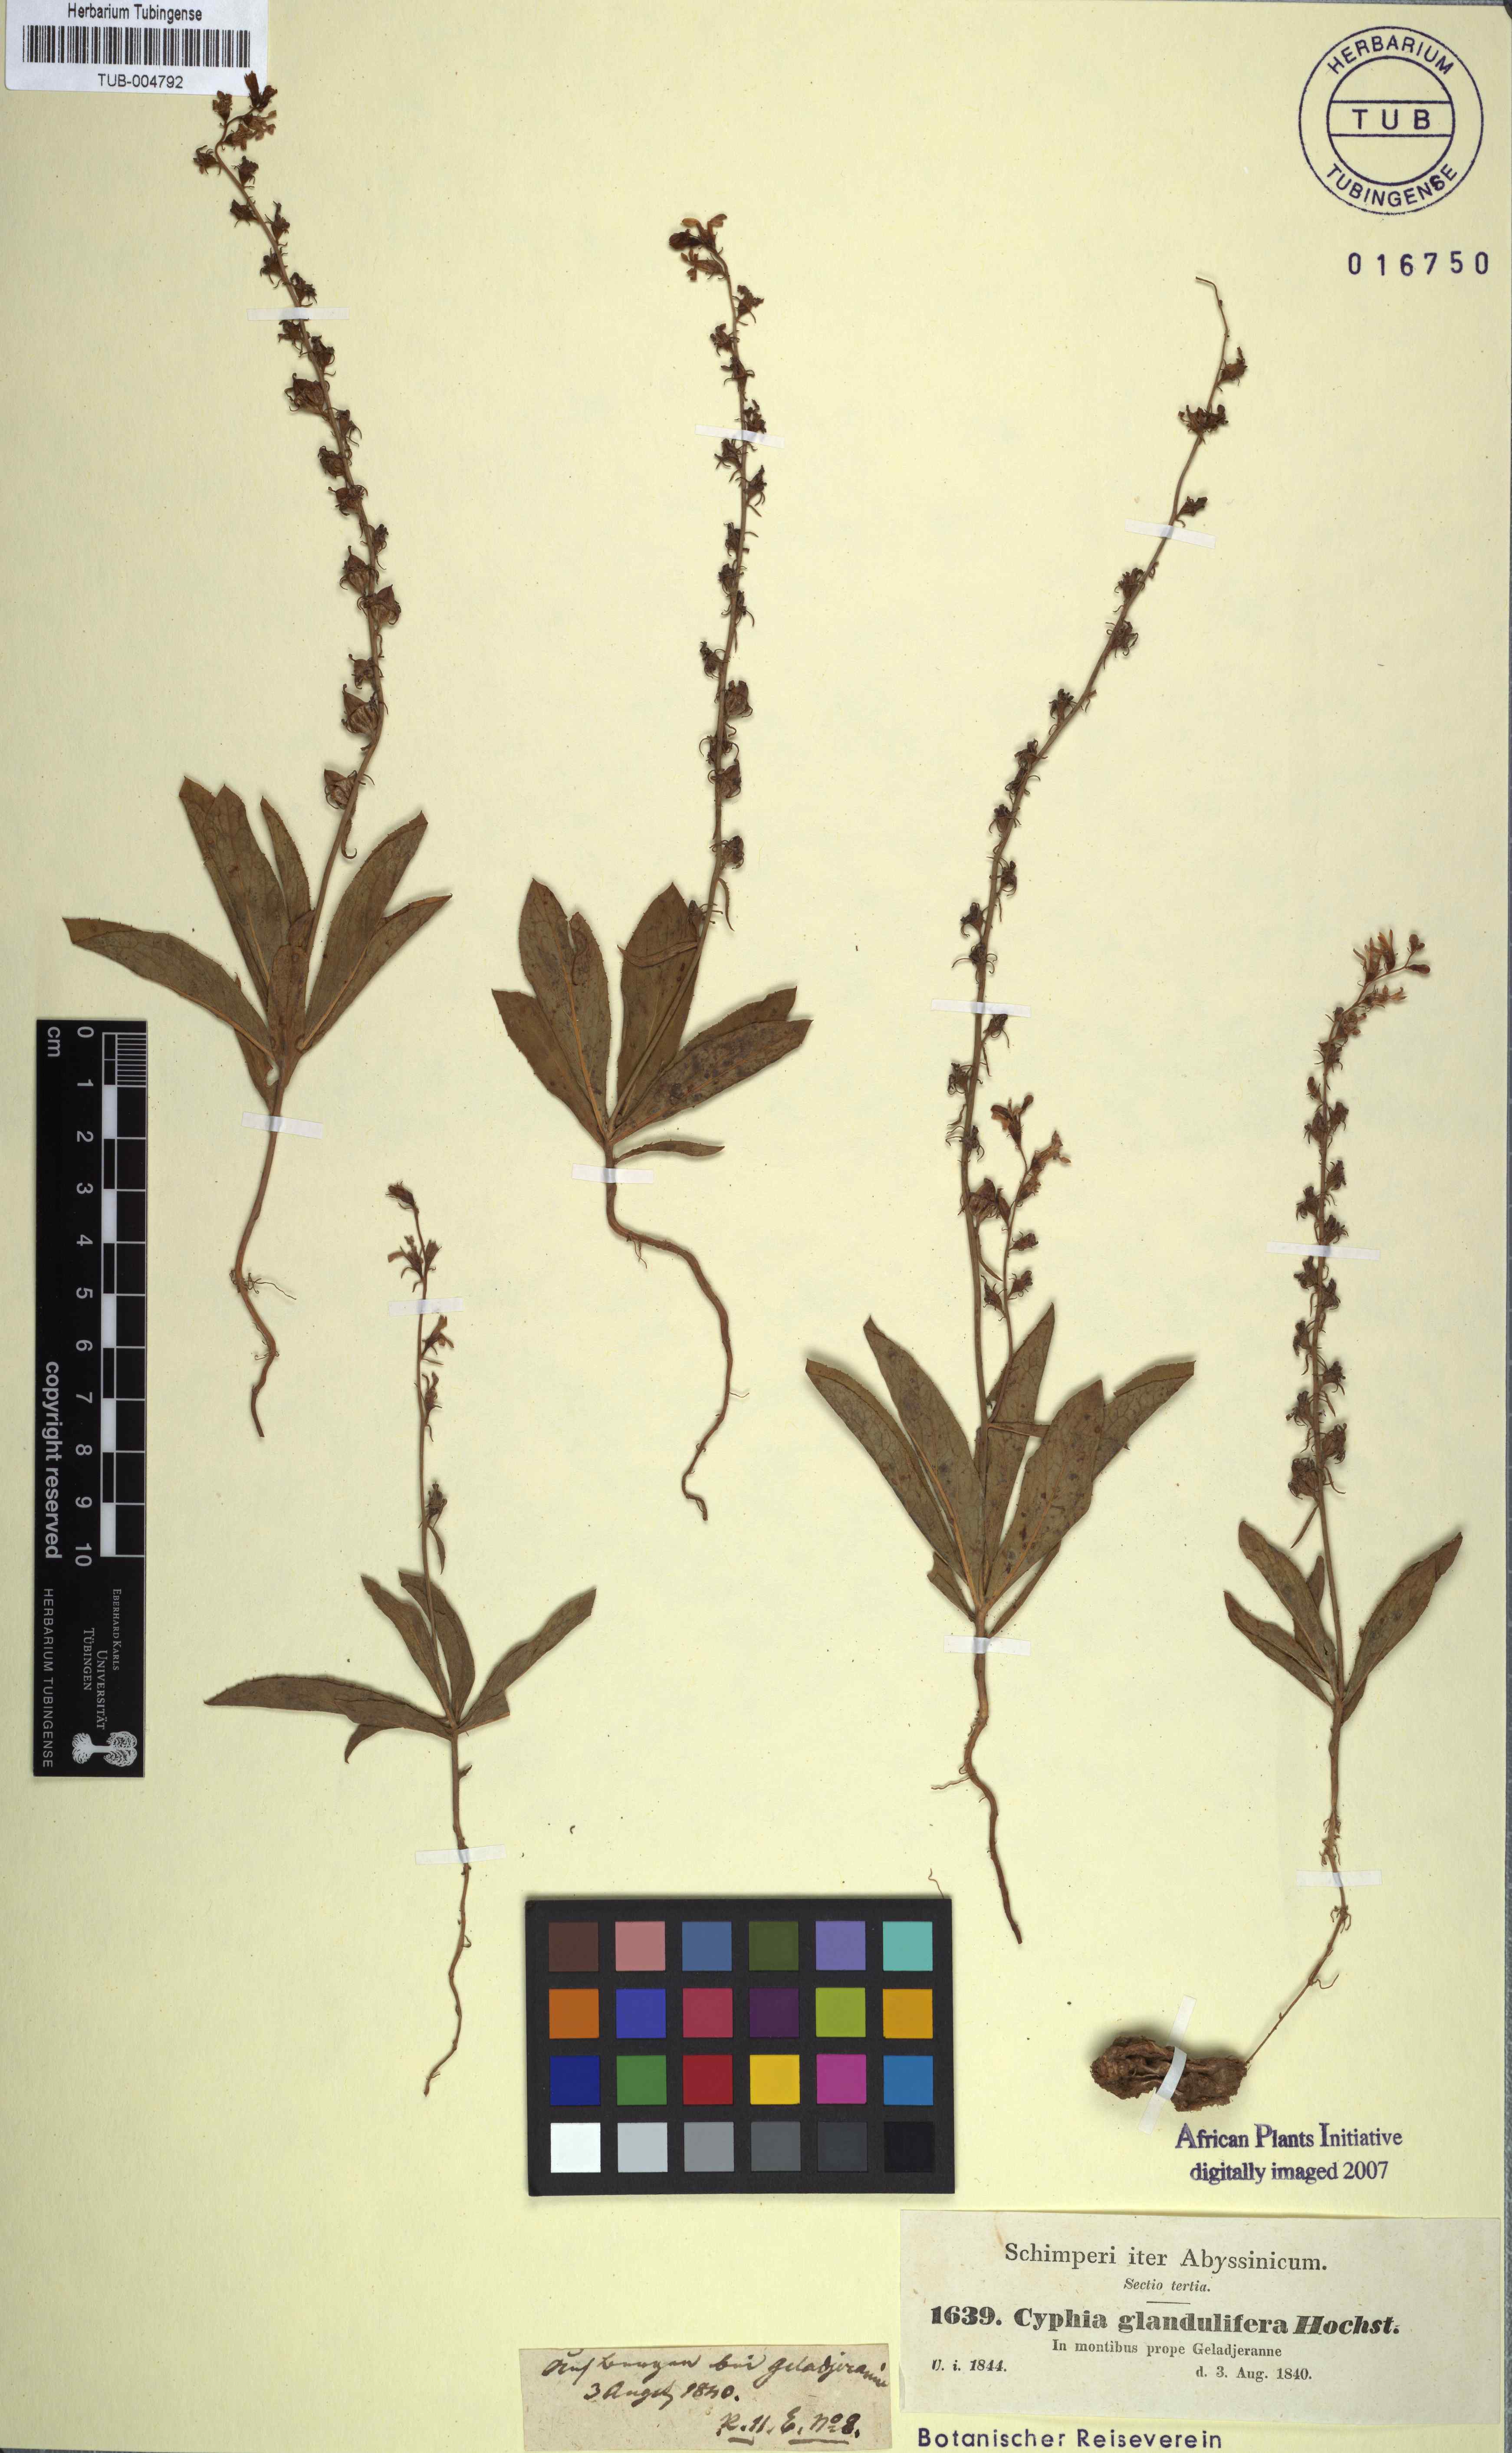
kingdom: Plantae
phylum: Tracheophyta
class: Magnoliopsida
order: Asterales
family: Campanulaceae
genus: Cyphia
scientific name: Cyphia glandulifera
